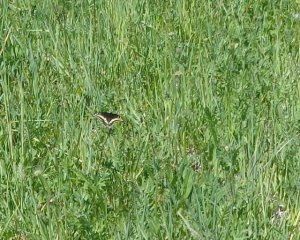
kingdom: Animalia
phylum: Arthropoda
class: Insecta
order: Lepidoptera
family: Papilionidae
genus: Papilio
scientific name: Papilio polyxenes
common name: Black Swallowtail
